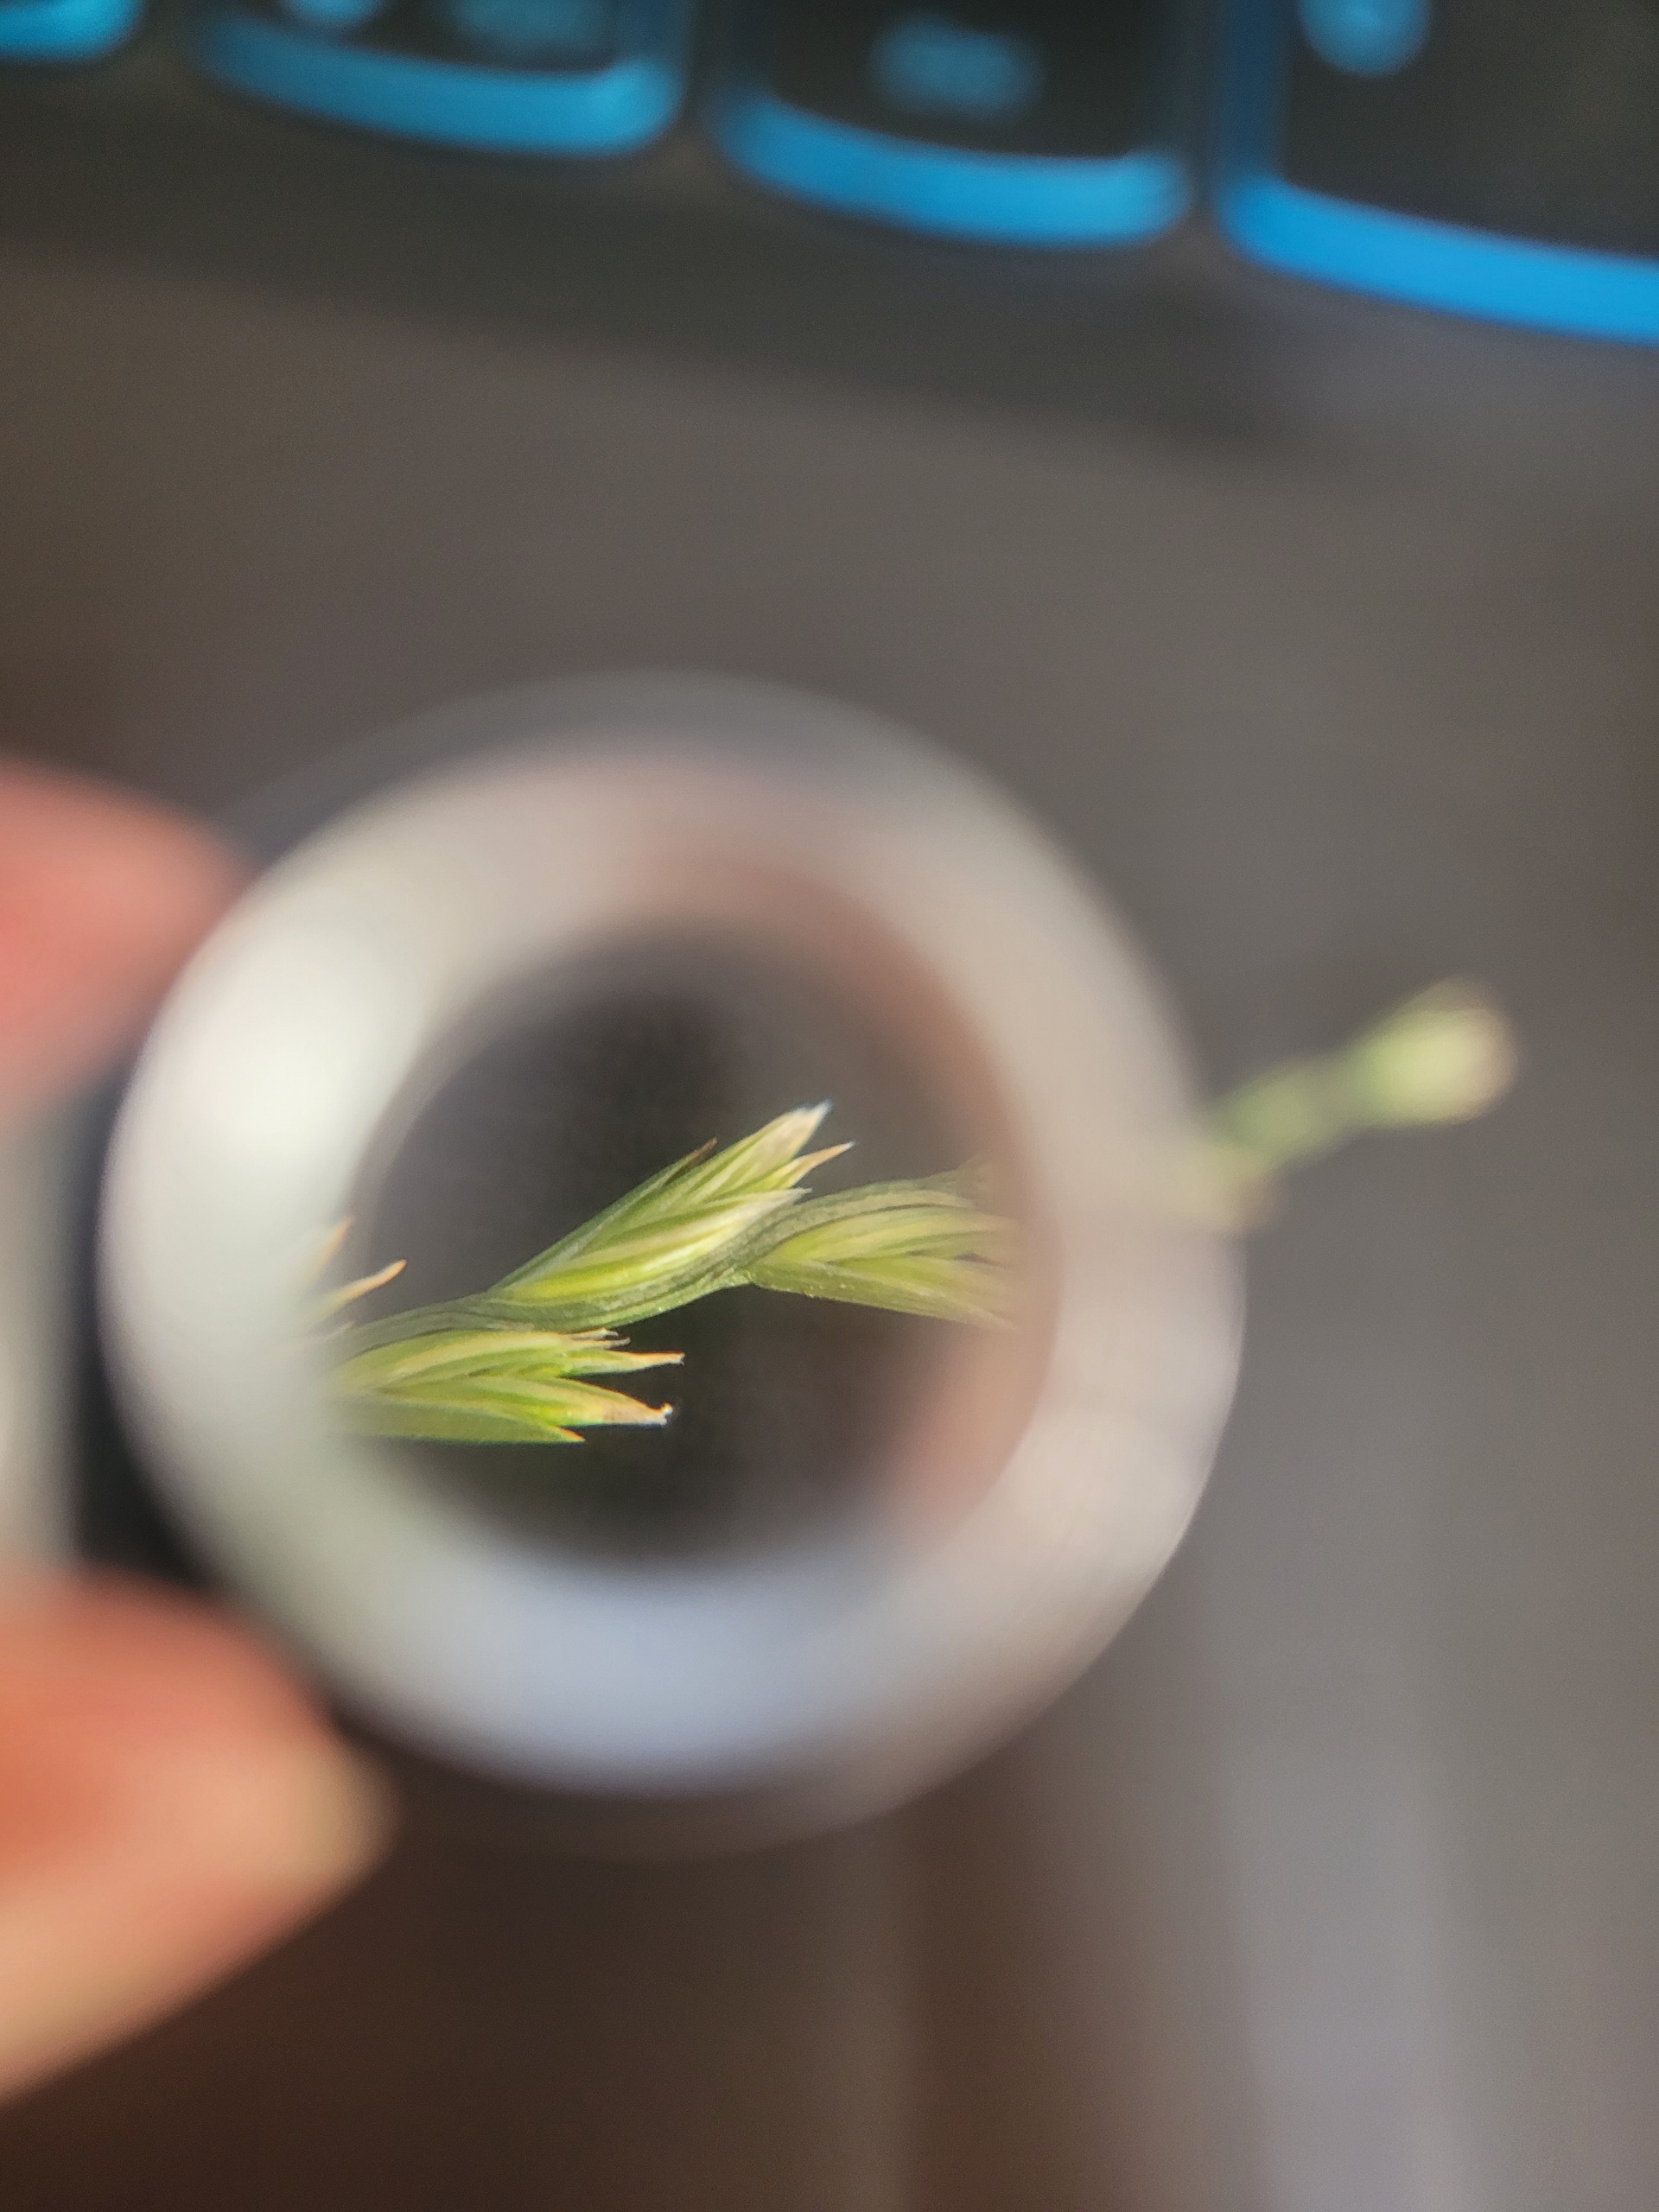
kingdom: Plantae
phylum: Tracheophyta
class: Liliopsida
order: Poales
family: Poaceae
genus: Lolium
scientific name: Lolium perenne
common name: Almindelig rajgræs
